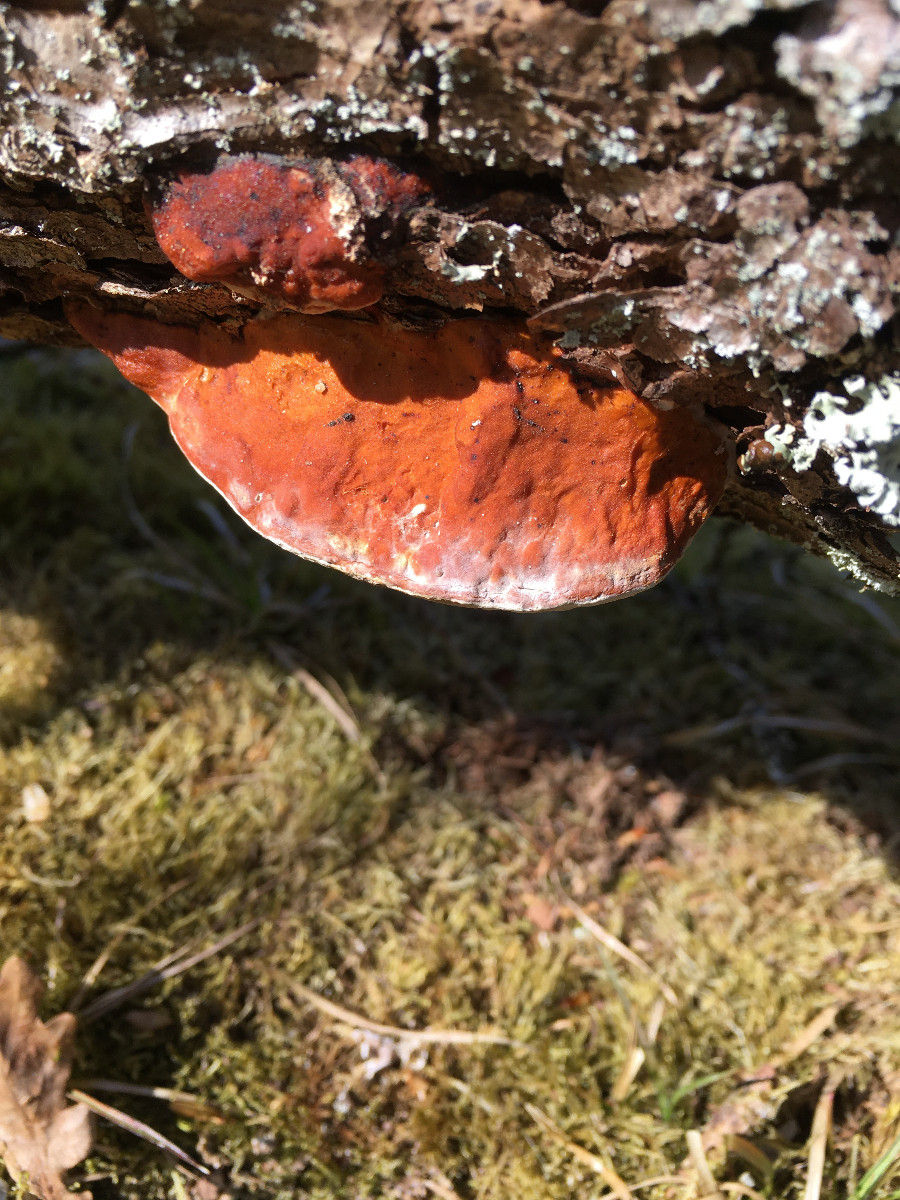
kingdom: Fungi
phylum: Basidiomycota
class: Agaricomycetes
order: Polyporales
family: Fomitopsidaceae
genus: Fomitopsis
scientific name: Fomitopsis pinicola
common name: randbæltet hovporesvamp
